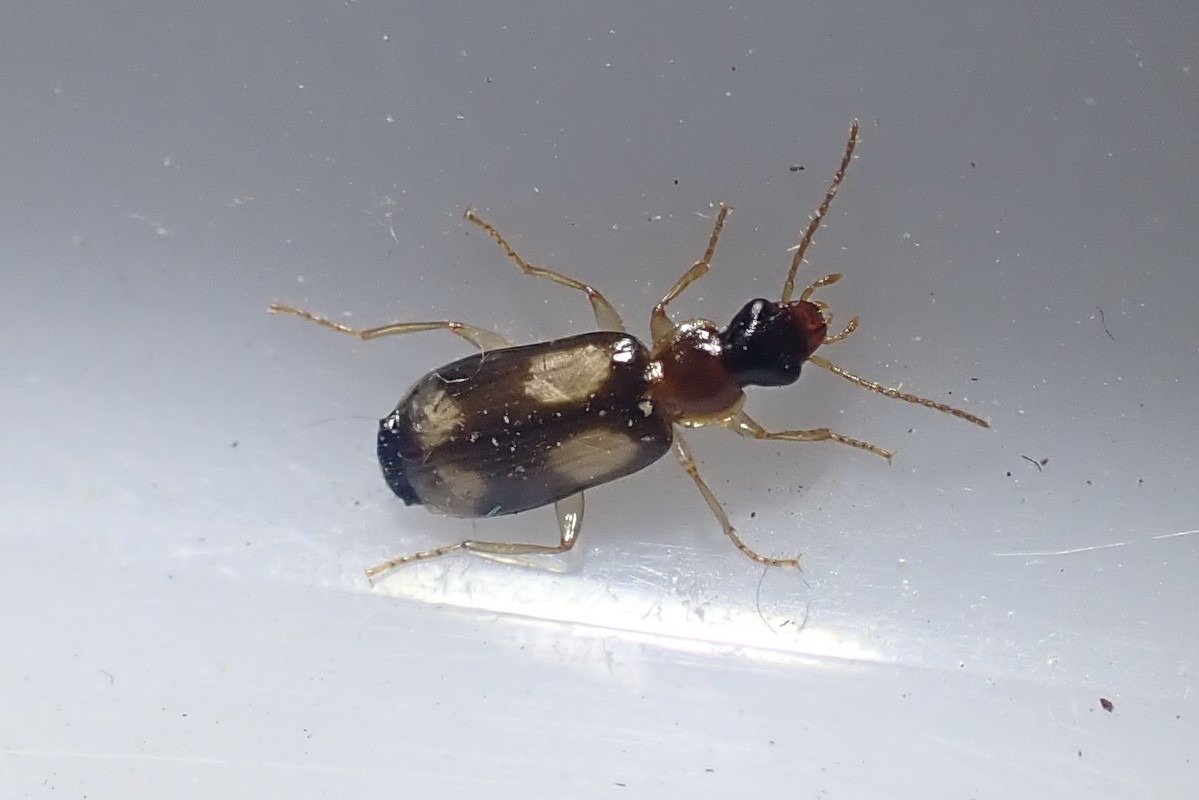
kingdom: Animalia
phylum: Arthropoda
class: Insecta
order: Coleoptera
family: Carabidae
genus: Dromius
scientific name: Dromius quadrimaculatus
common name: Fireplettet barkløber
